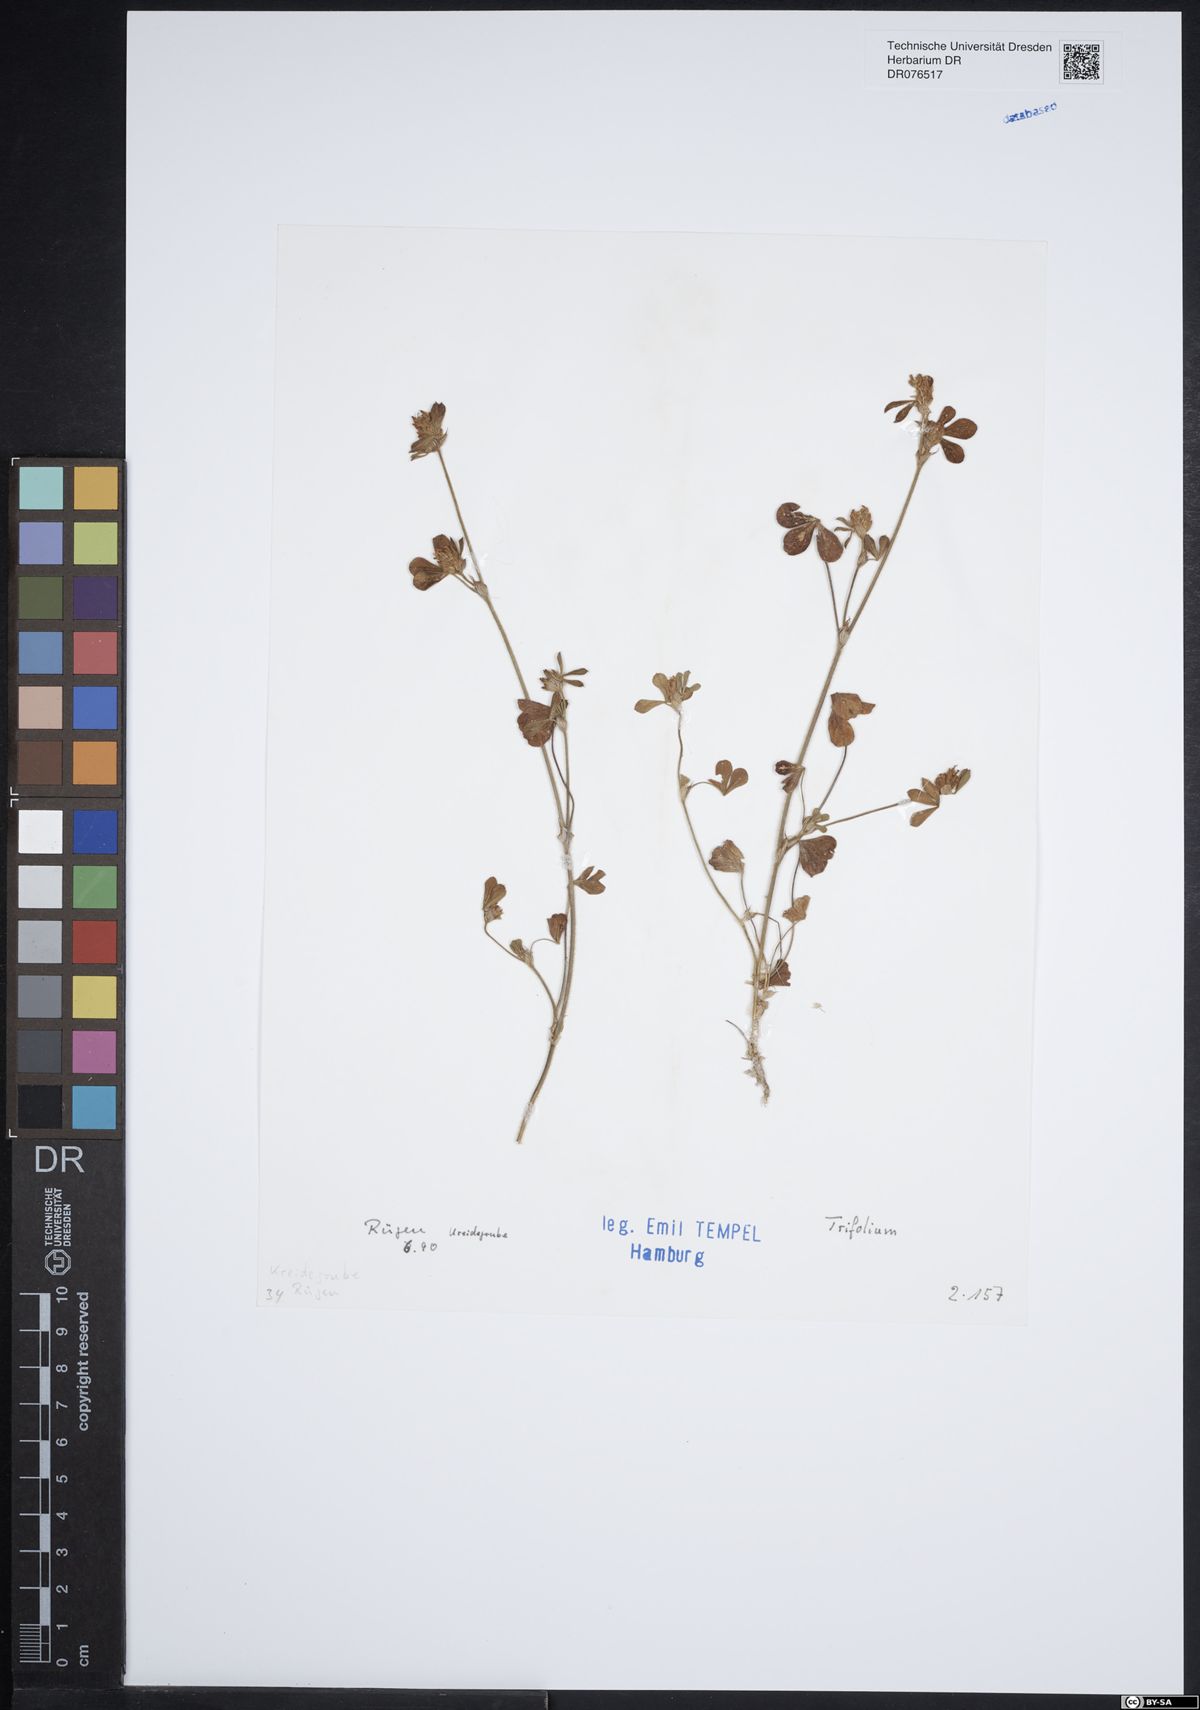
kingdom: Plantae
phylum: Tracheophyta
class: Magnoliopsida
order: Fabales
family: Fabaceae
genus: Trifolium
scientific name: Trifolium
